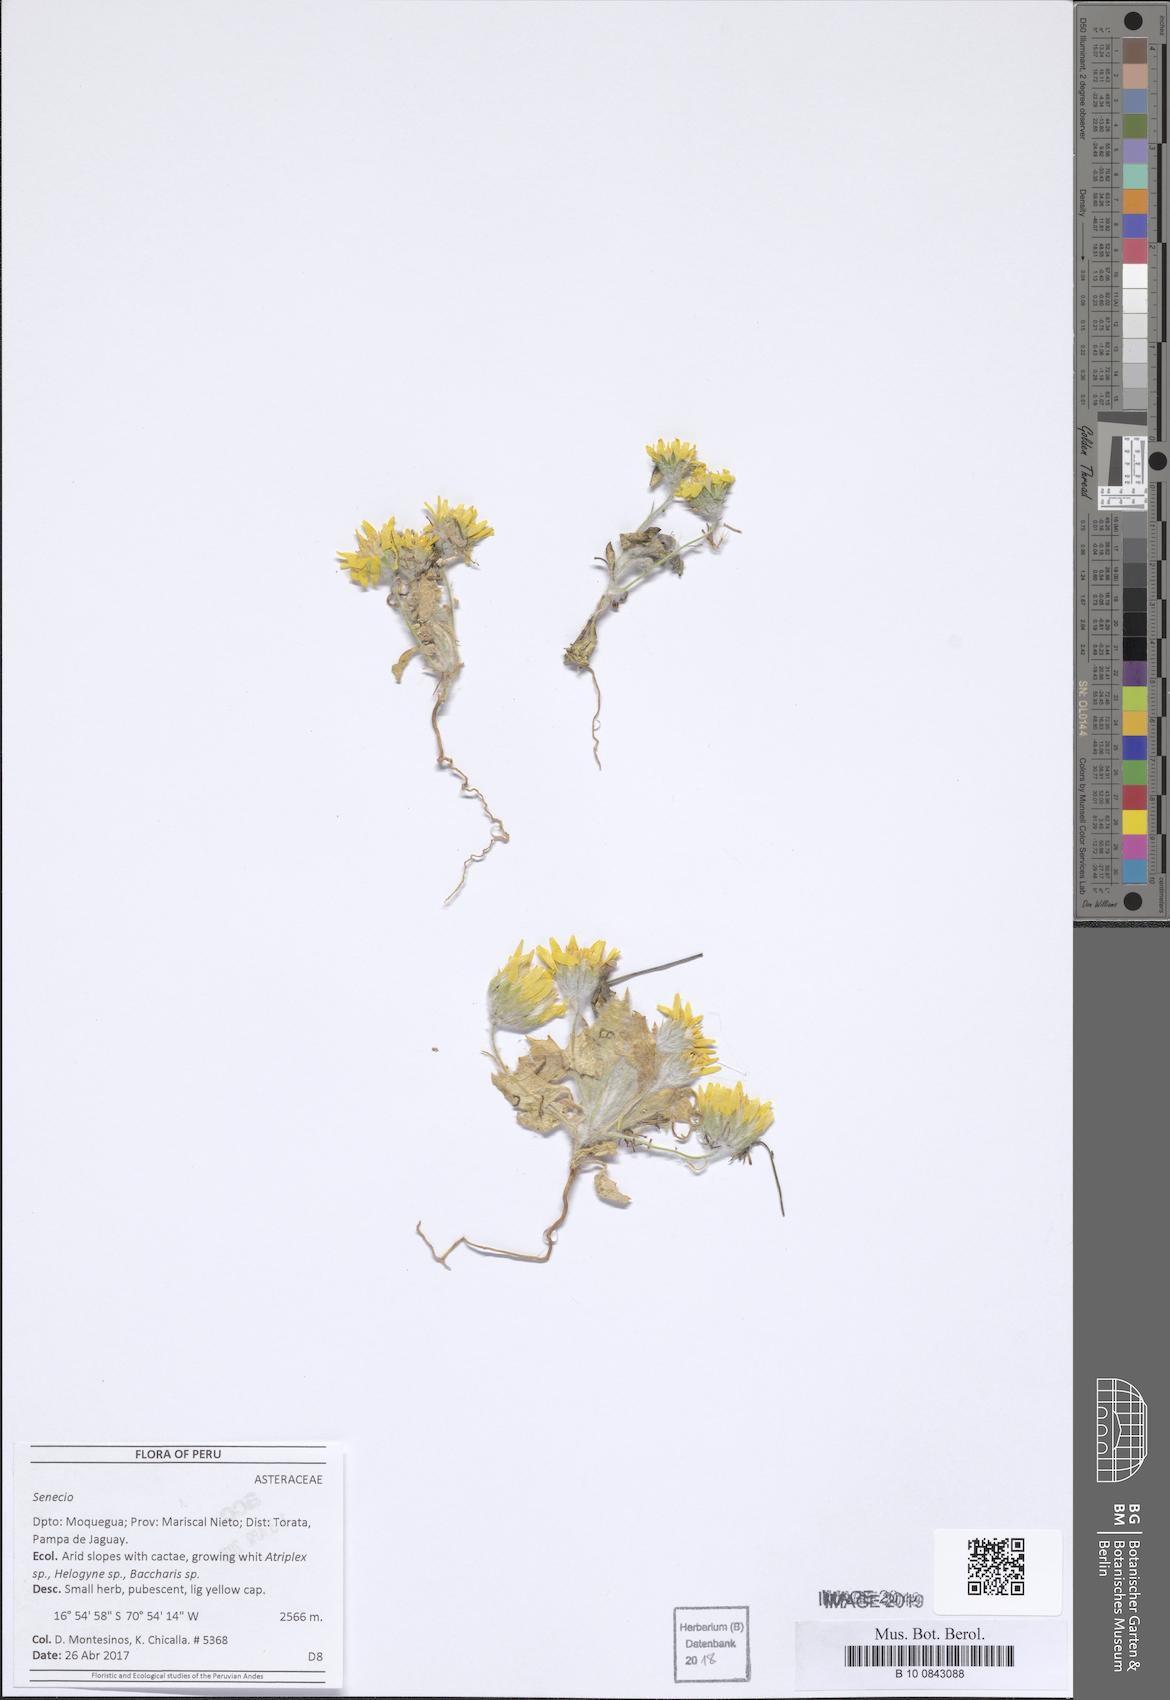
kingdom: Plantae
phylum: Tracheophyta
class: Magnoliopsida
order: Asterales
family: Asteraceae
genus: Trichocline
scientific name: Trichocline caulescens
